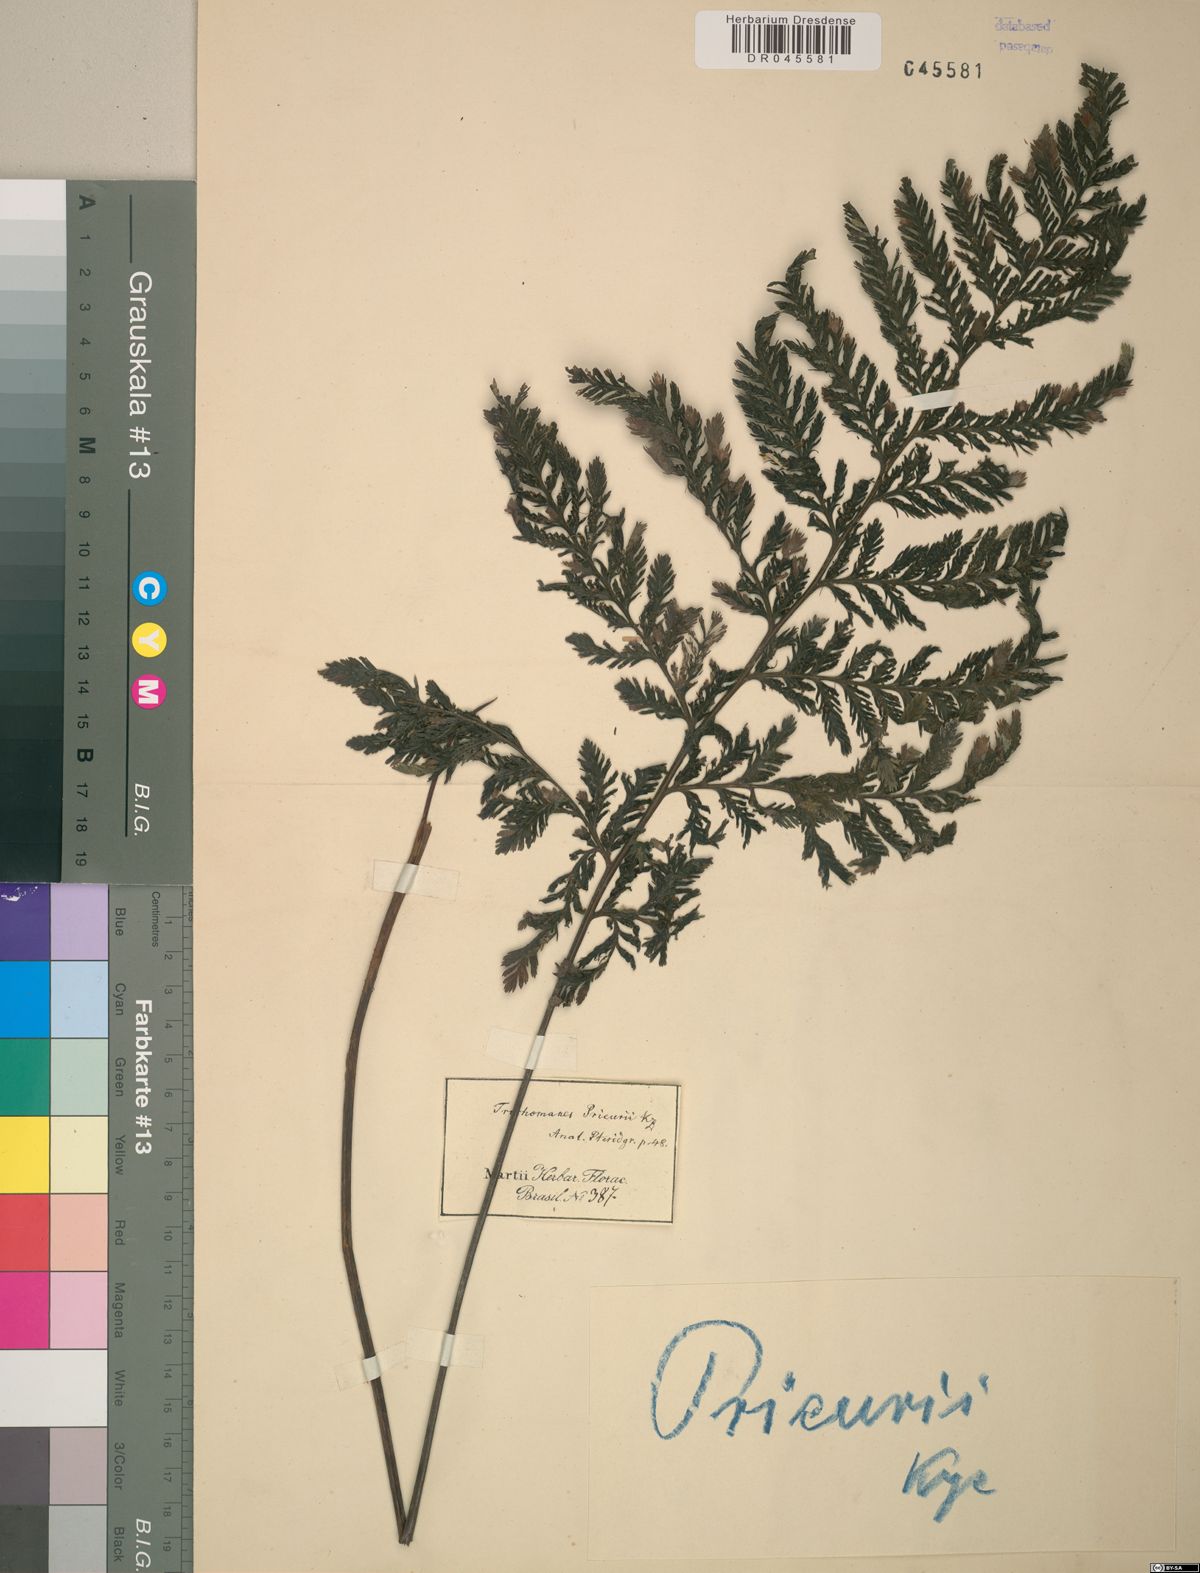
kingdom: Plantae
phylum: Tracheophyta
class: Polypodiopsida
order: Hymenophyllales
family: Hymenophyllaceae
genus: Trichomanes
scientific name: Trichomanes elegans
